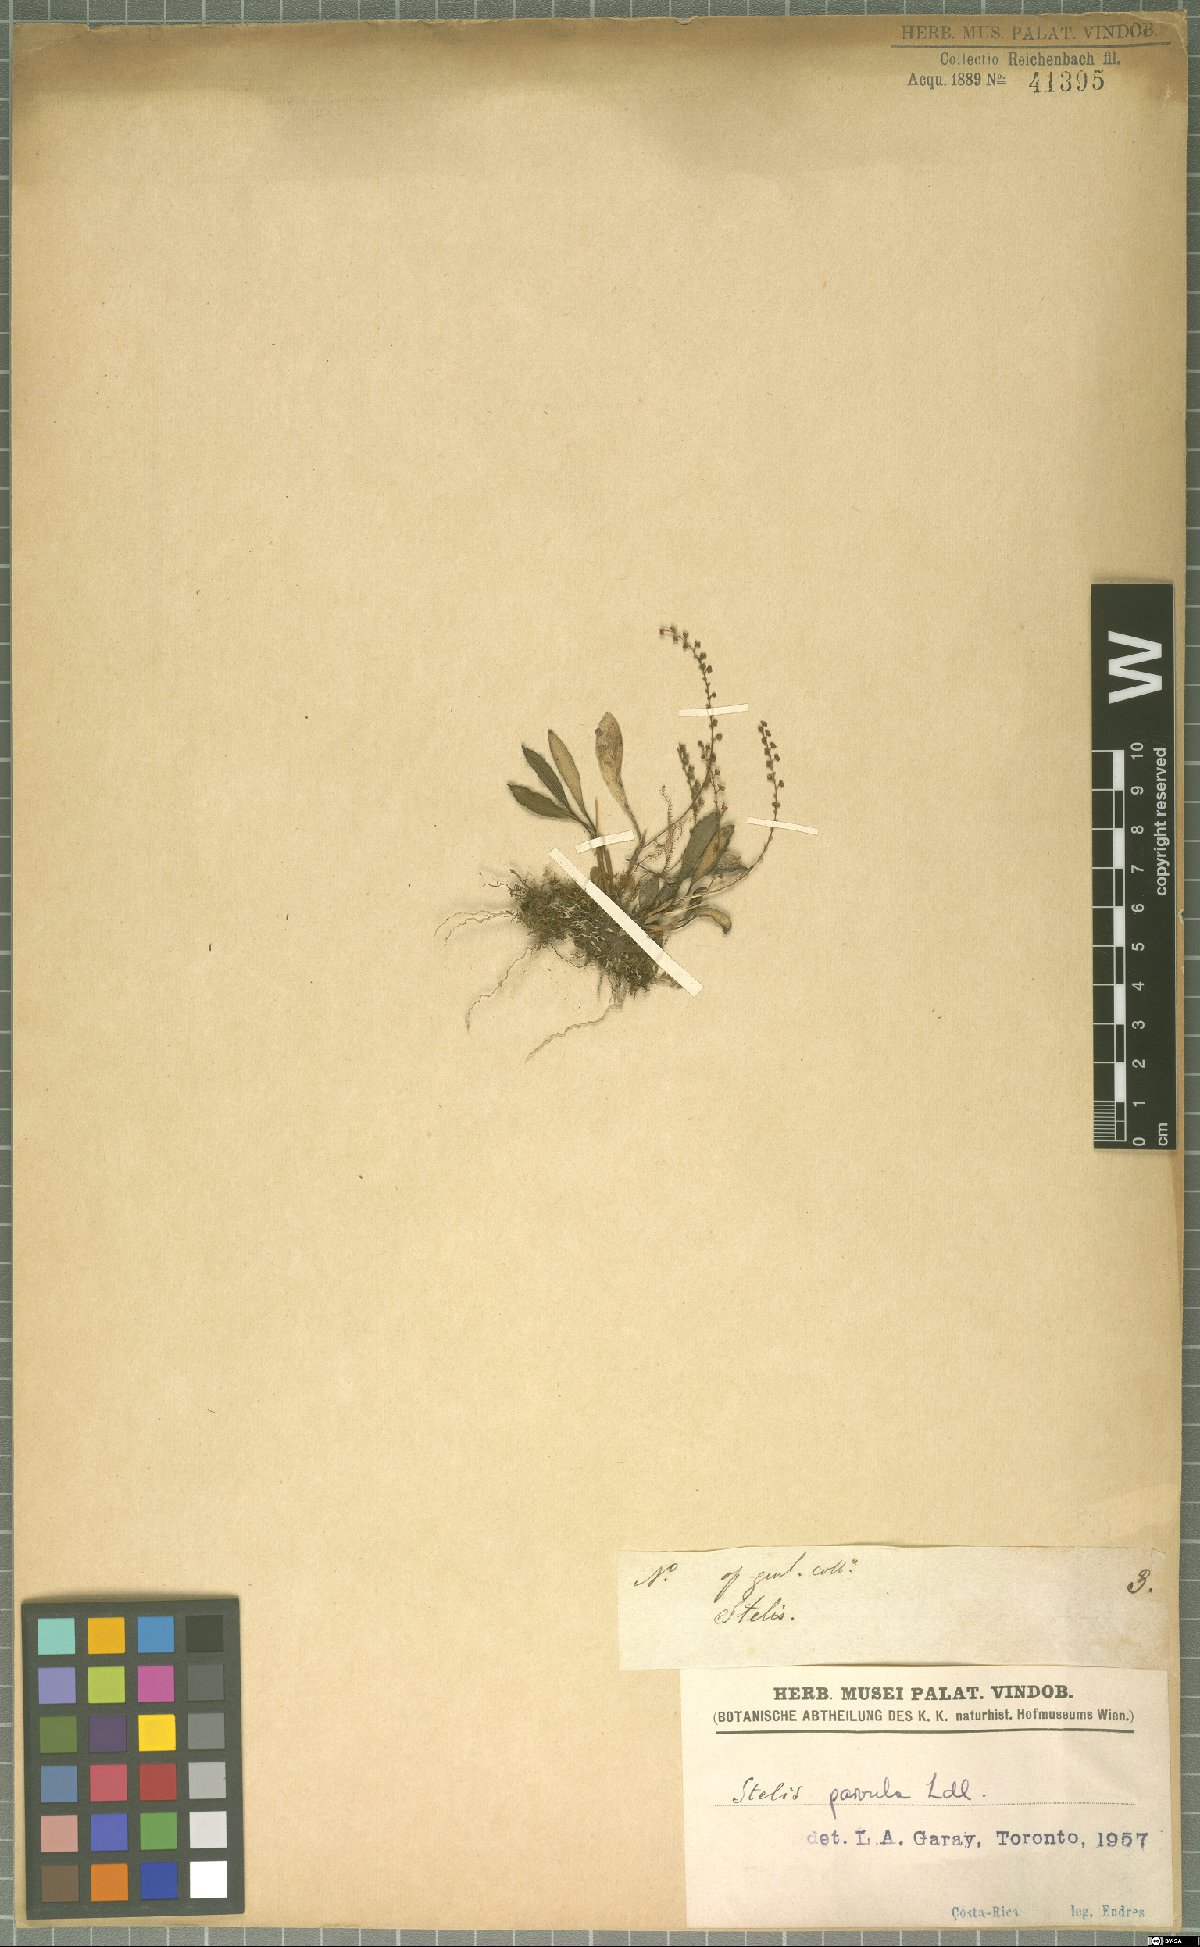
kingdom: Plantae
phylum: Tracheophyta
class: Liliopsida
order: Asparagales
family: Orchidaceae
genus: Stelis
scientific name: Stelis parvula
